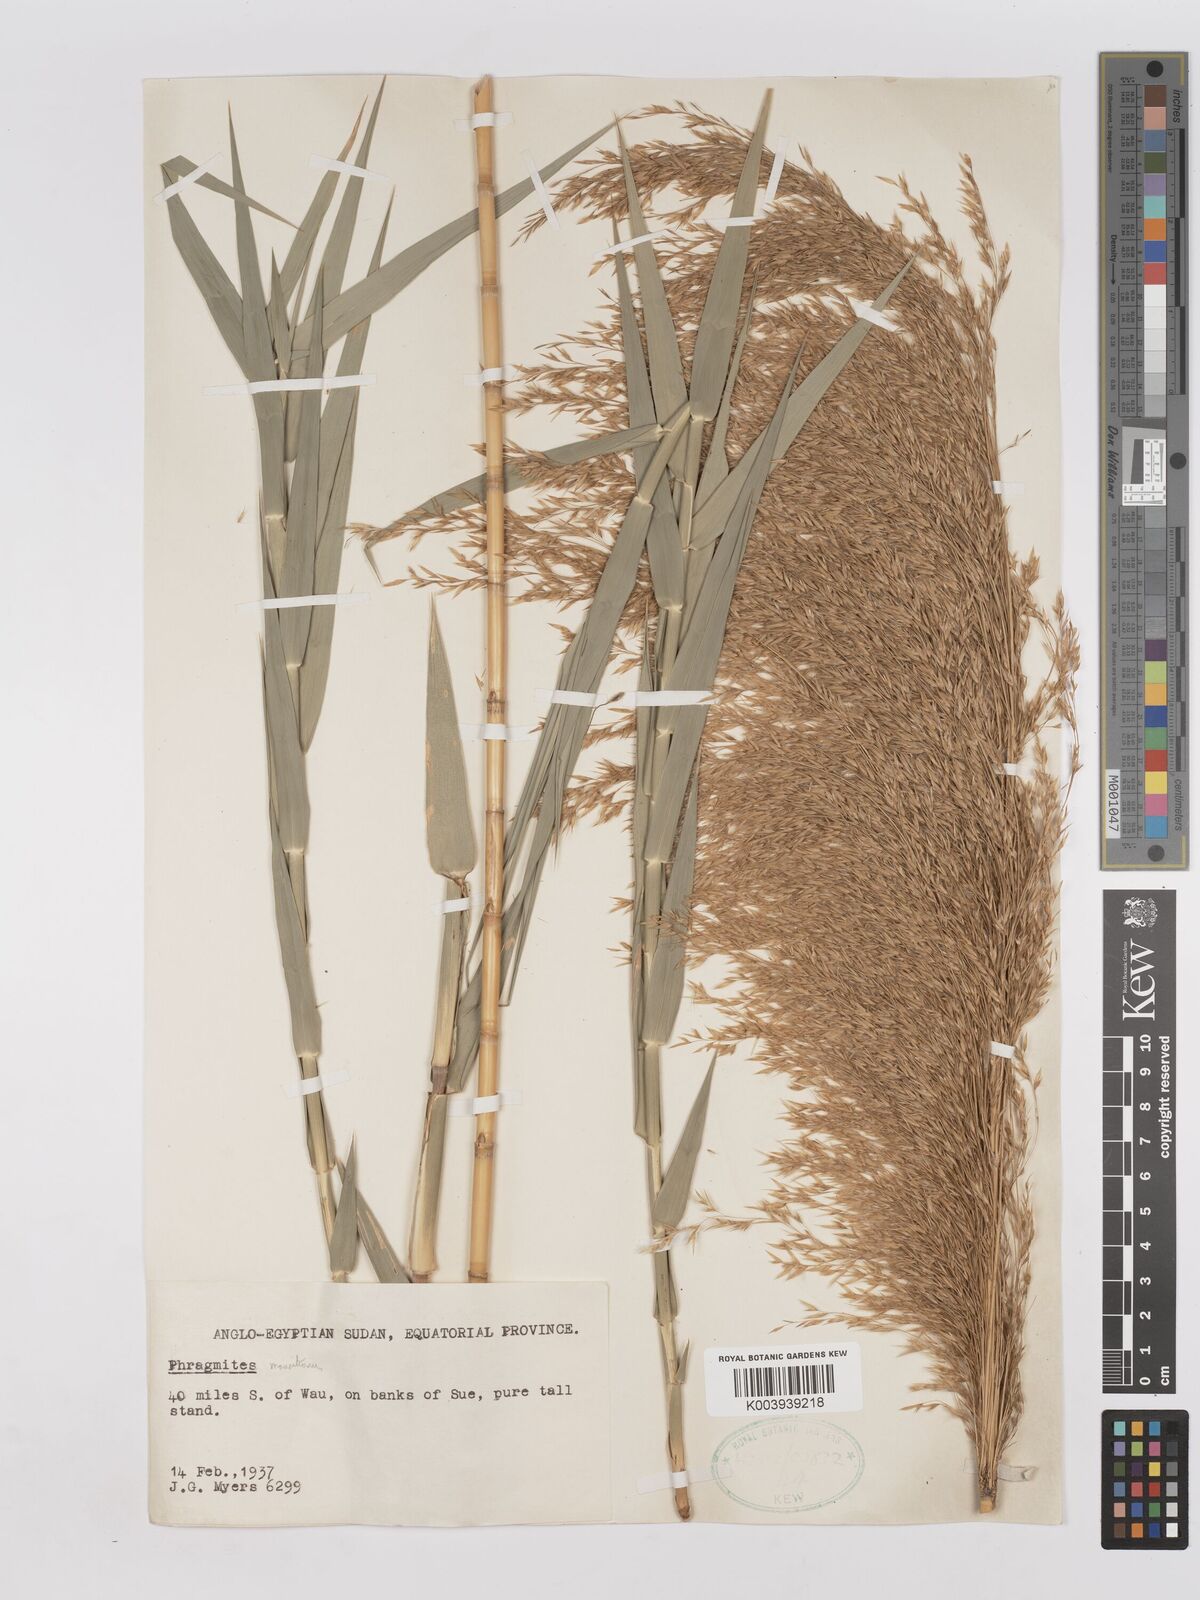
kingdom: Plantae
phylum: Tracheophyta
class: Liliopsida
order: Poales
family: Poaceae
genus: Phragmites
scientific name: Phragmites mauritianus
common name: Reed grass
